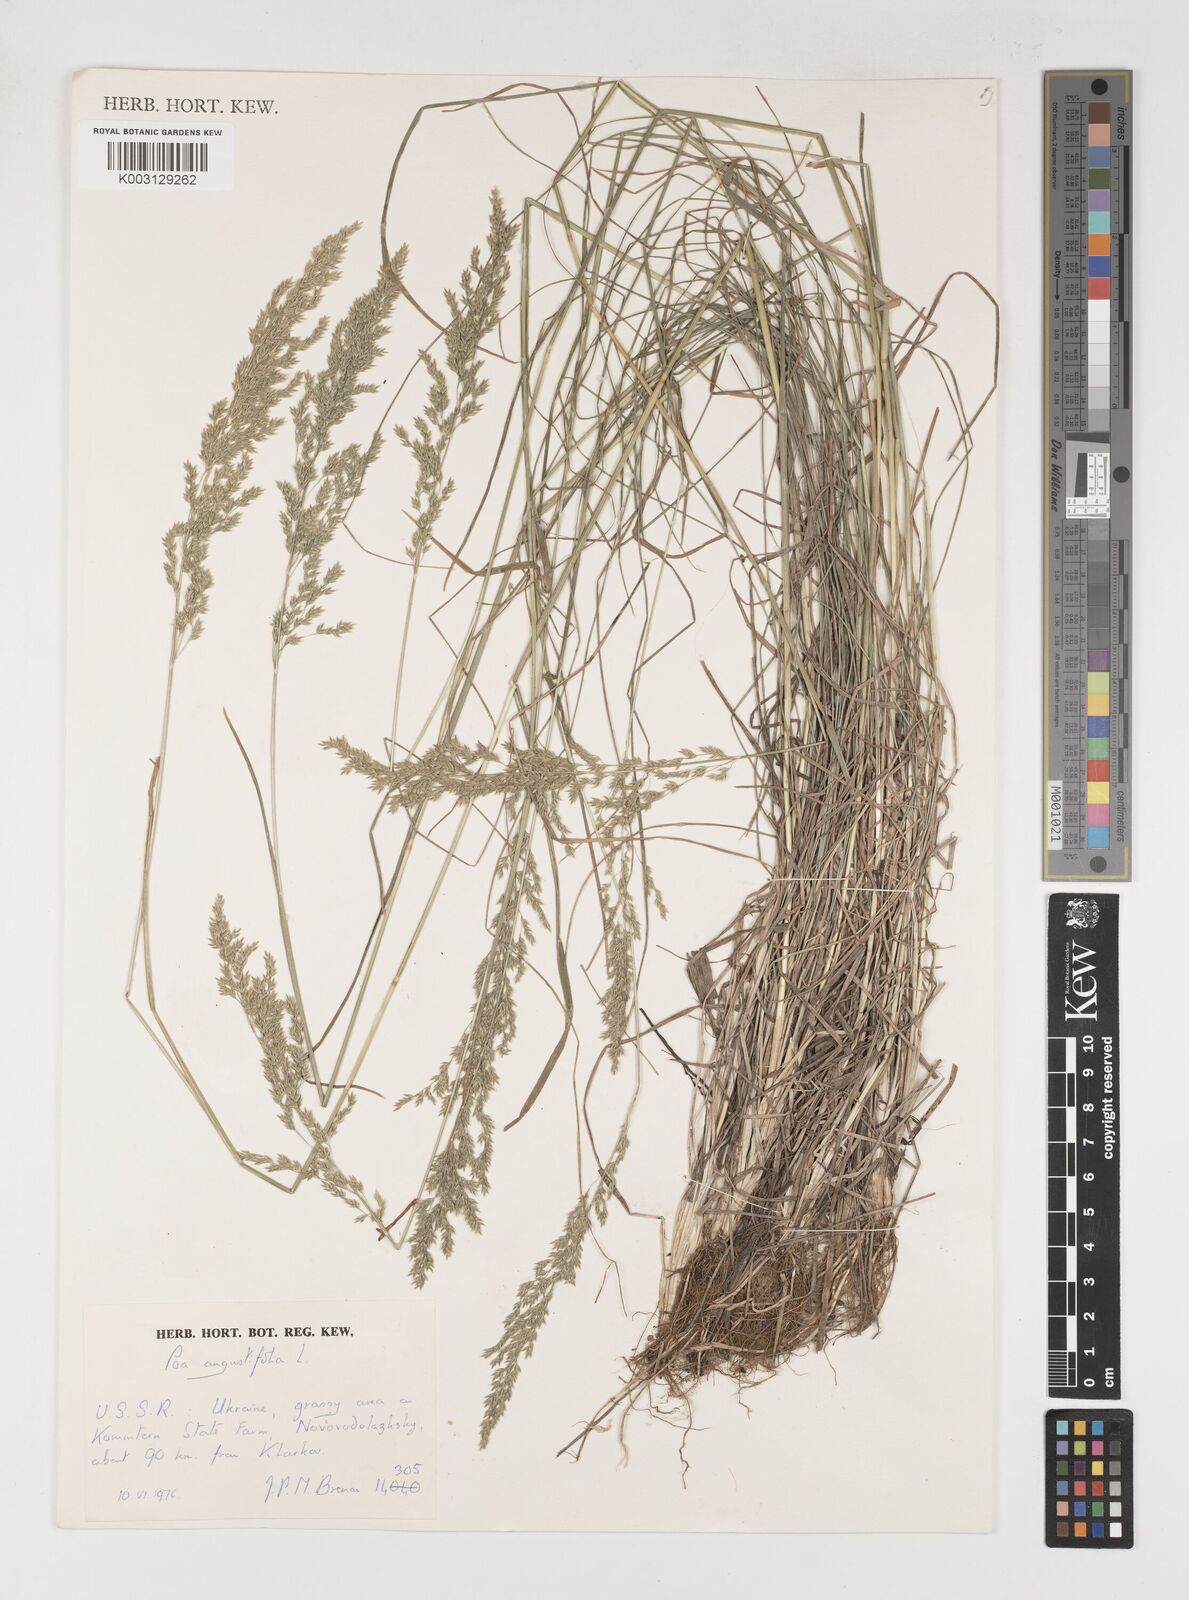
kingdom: Plantae
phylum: Tracheophyta
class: Liliopsida
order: Poales
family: Poaceae
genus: Poa
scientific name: Poa angustifolia
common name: Narrow-leaved meadow-grass
